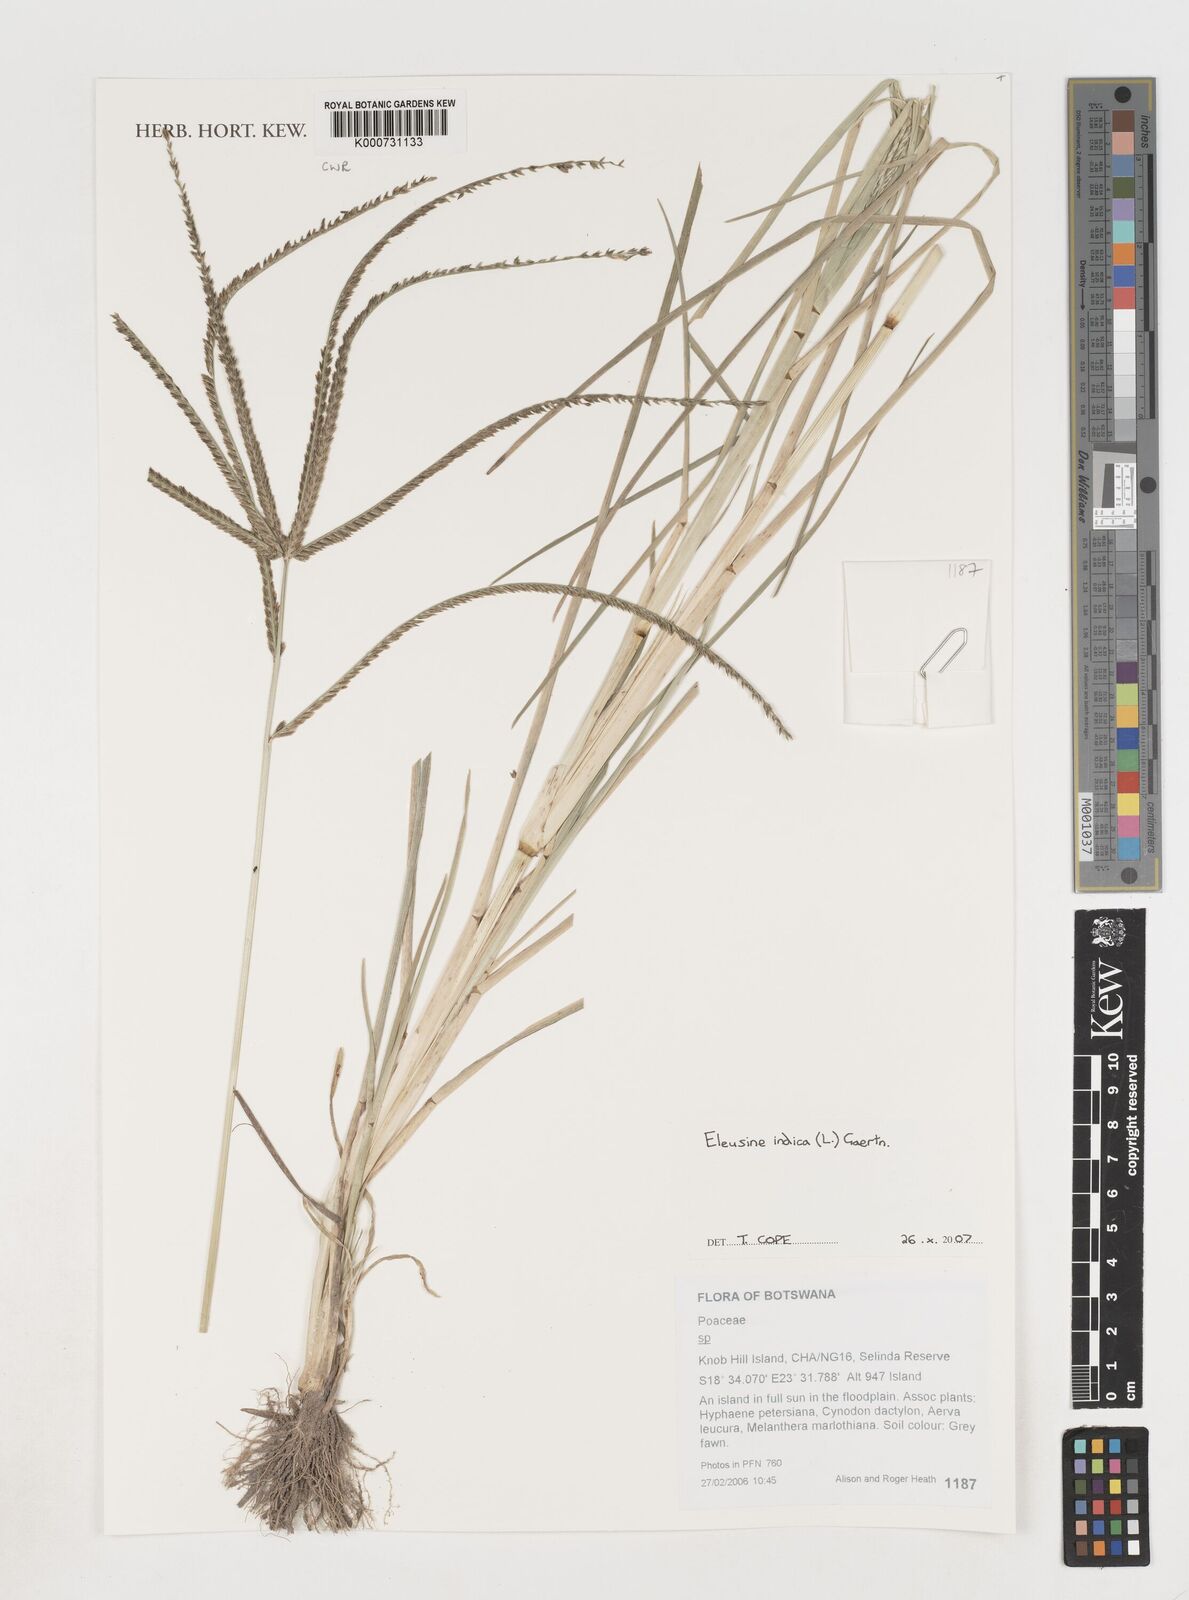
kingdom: Plantae
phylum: Tracheophyta
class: Liliopsida
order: Poales
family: Poaceae
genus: Eleusine
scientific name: Eleusine indica
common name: Yard-grass
